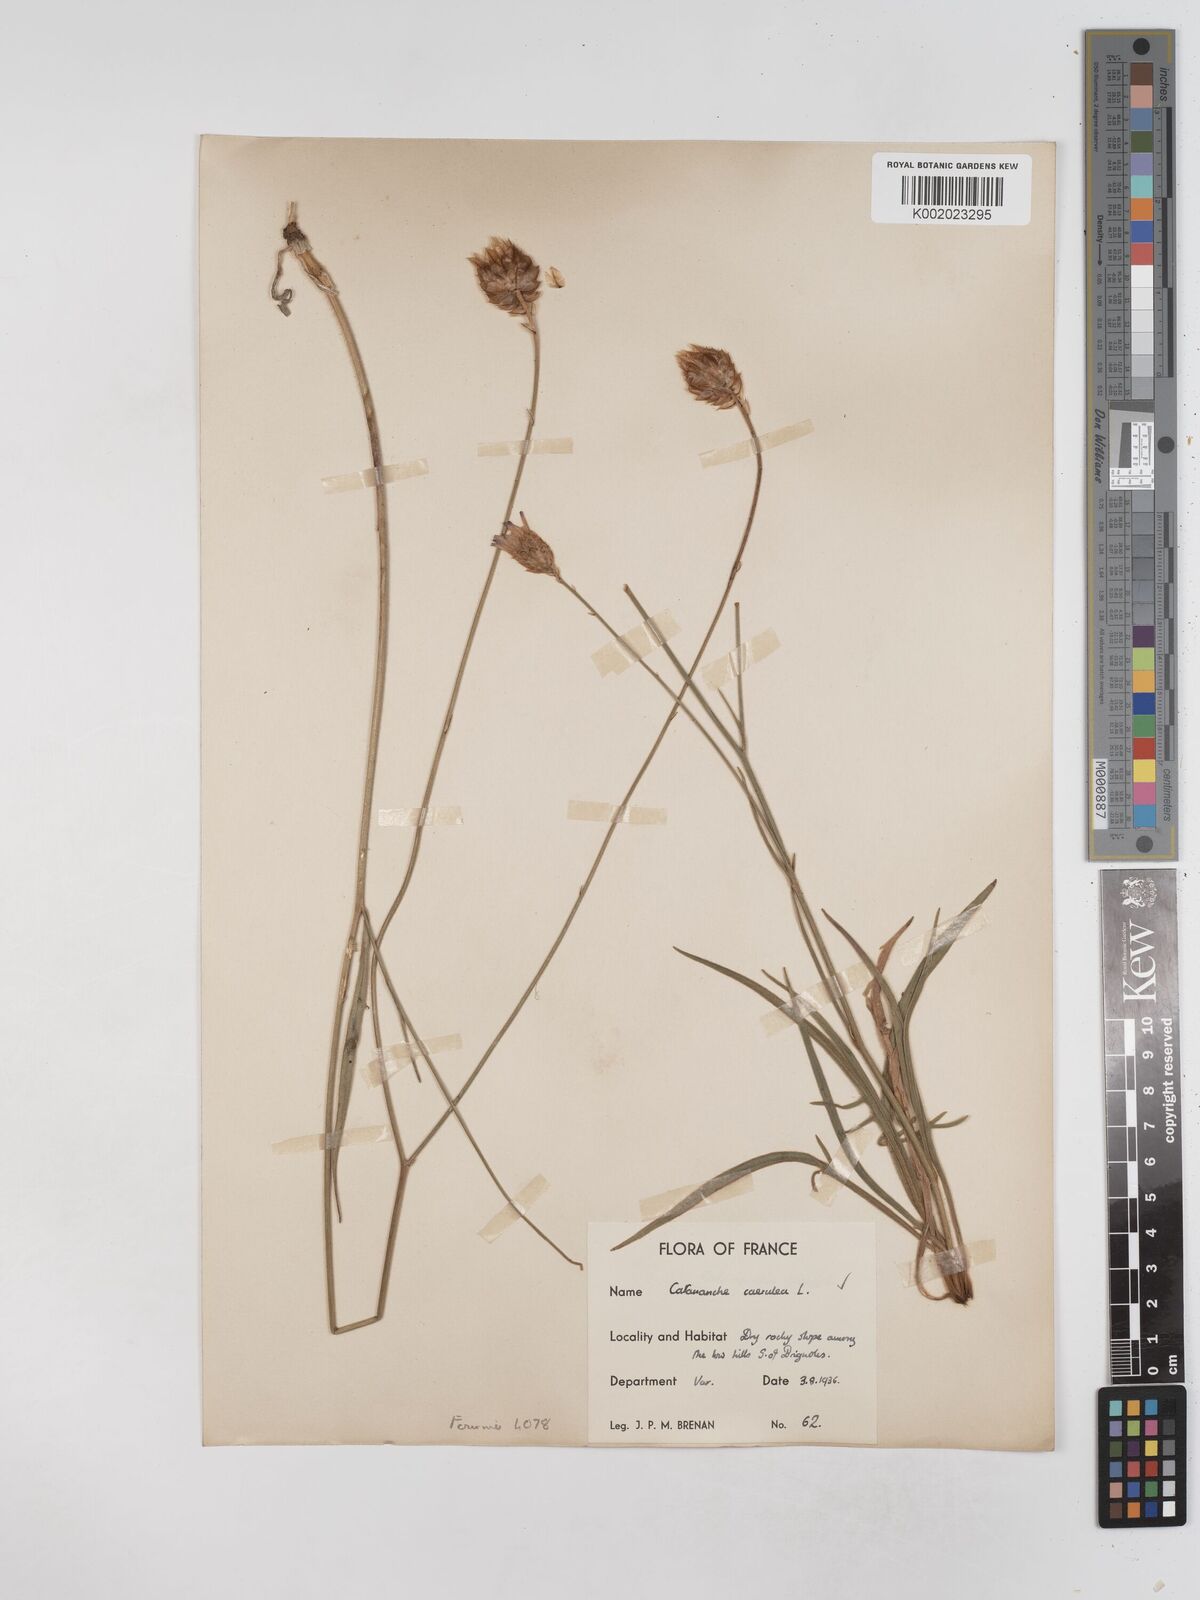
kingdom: Plantae
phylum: Tracheophyta
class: Magnoliopsida
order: Asterales
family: Asteraceae
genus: Catananche
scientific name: Catananche caerulea
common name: Blue cupidone
